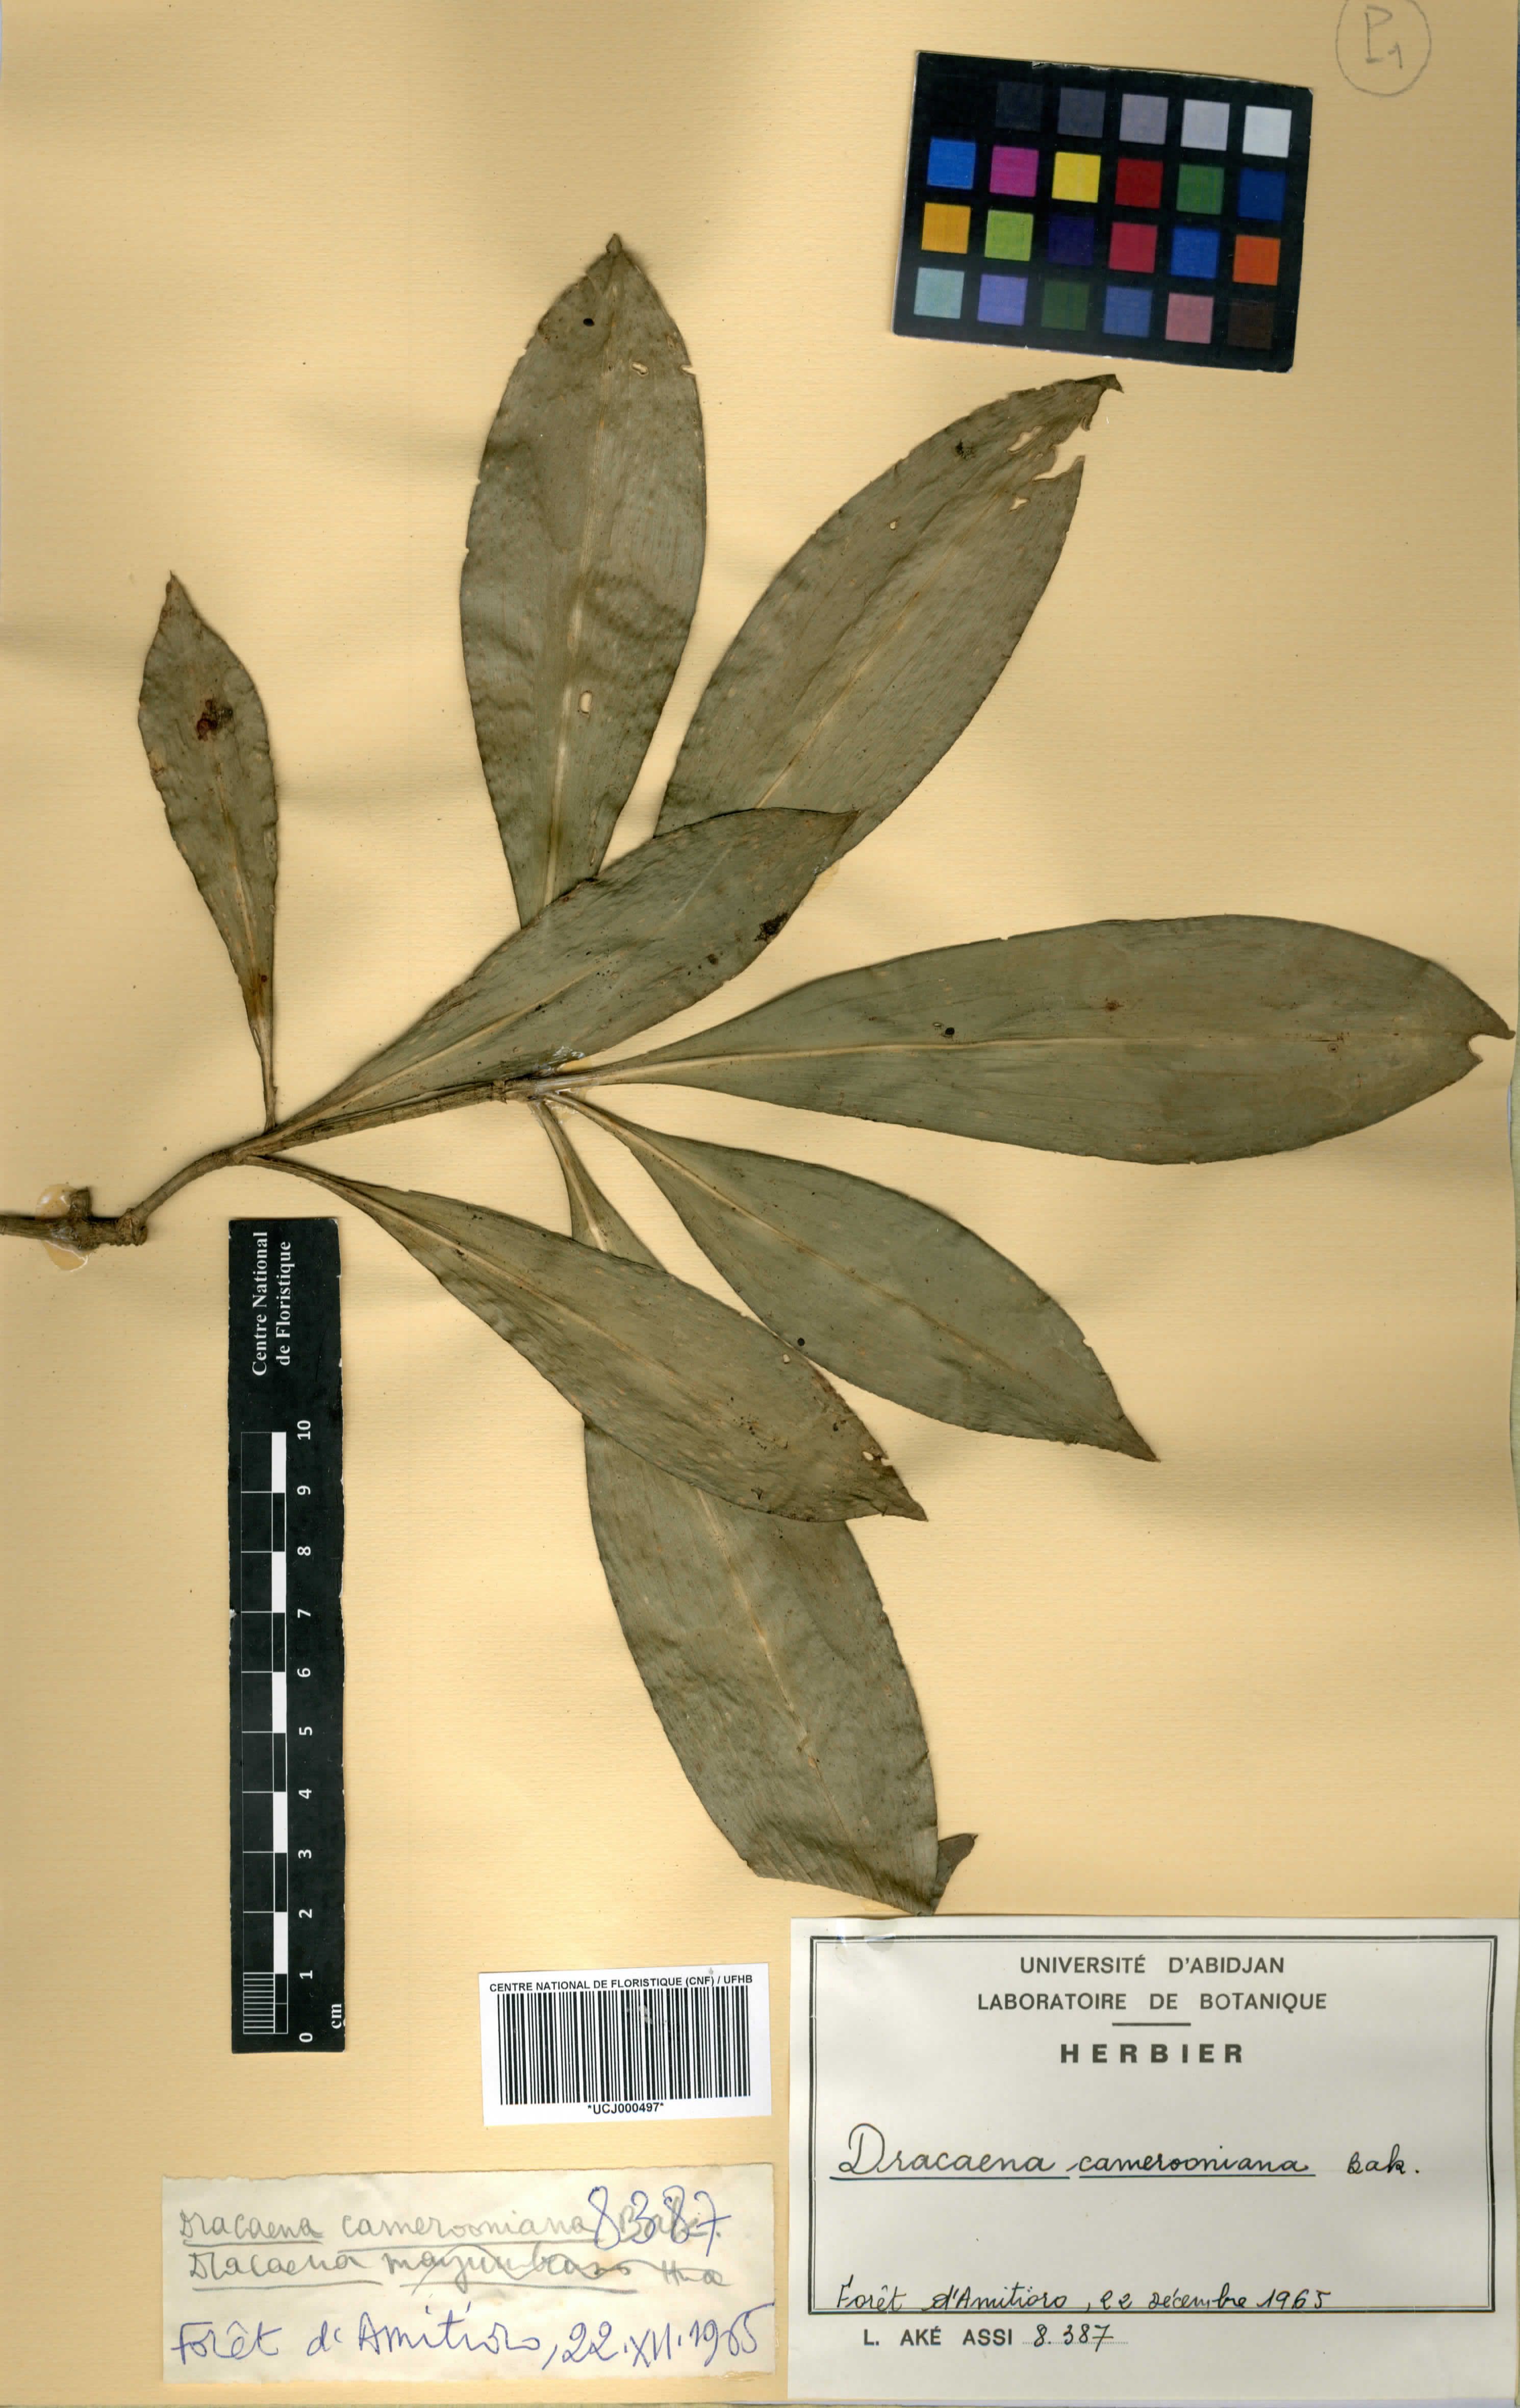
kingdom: Plantae
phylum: Tracheophyta
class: Liliopsida
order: Asparagales
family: Asparagaceae
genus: Dracaena
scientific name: Dracaena camerooniana
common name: Dragon tree
